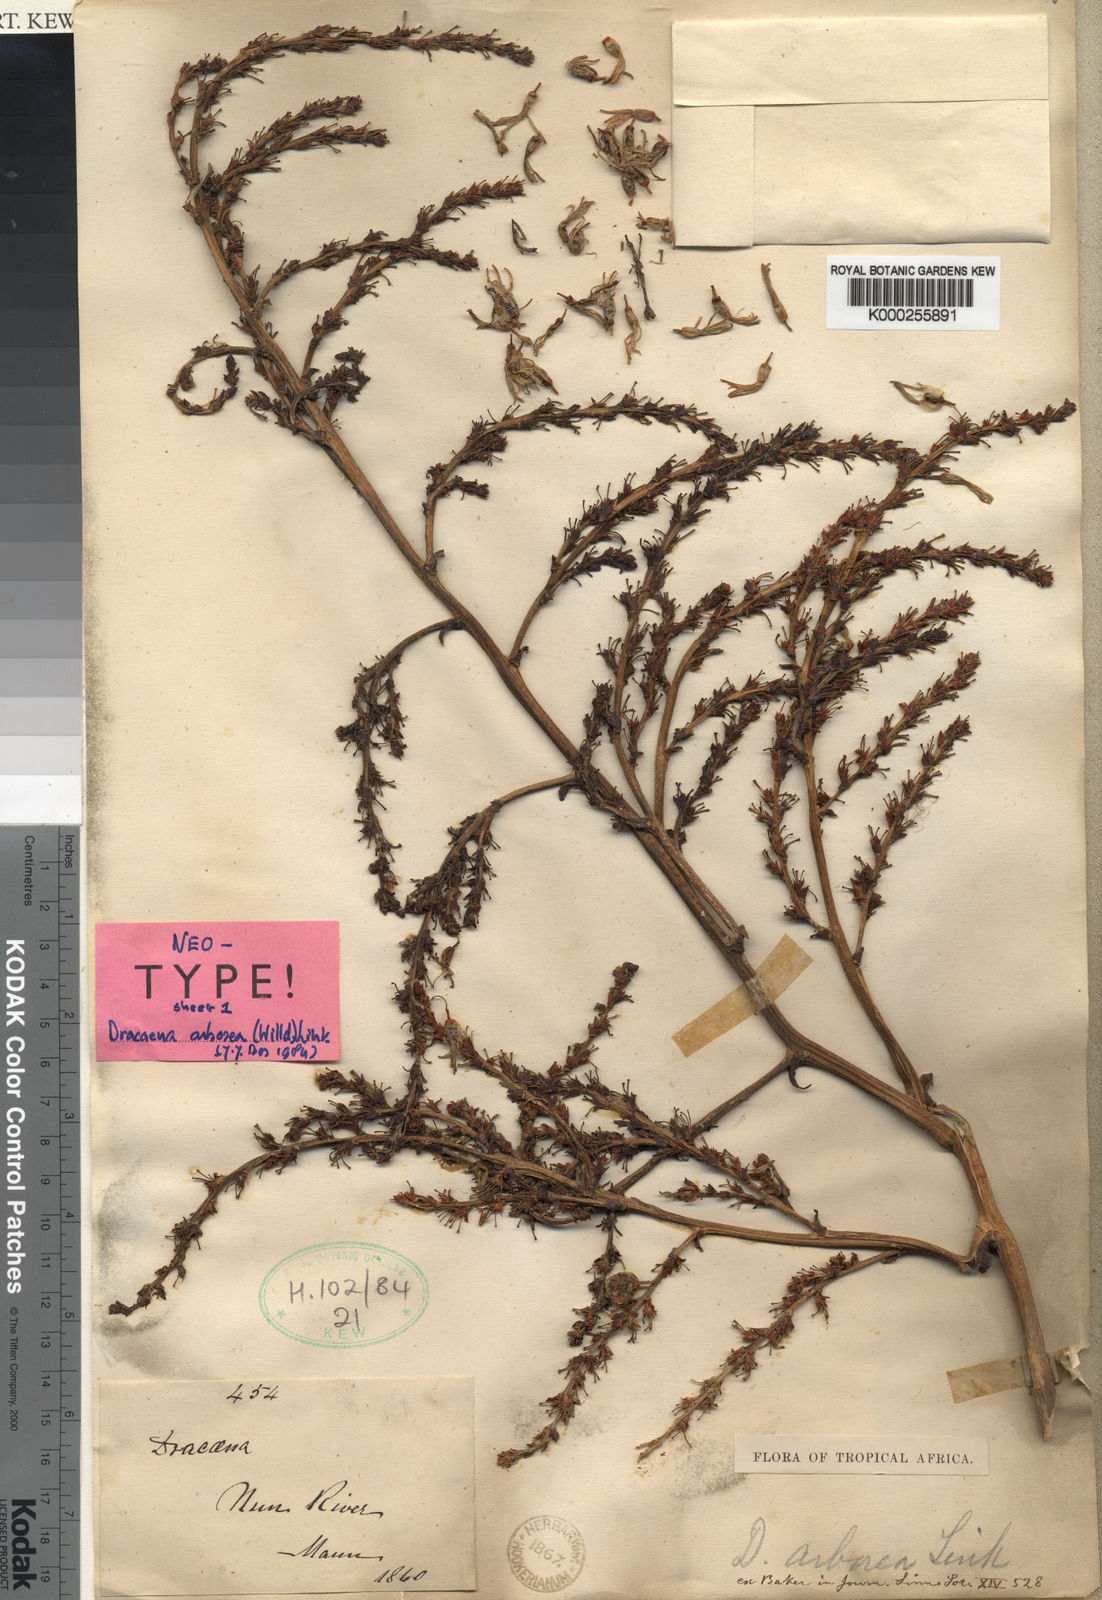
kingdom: Plantae
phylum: Tracheophyta
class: Liliopsida
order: Asparagales
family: Asparagaceae
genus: Dracaena
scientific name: Dracaena arborea
